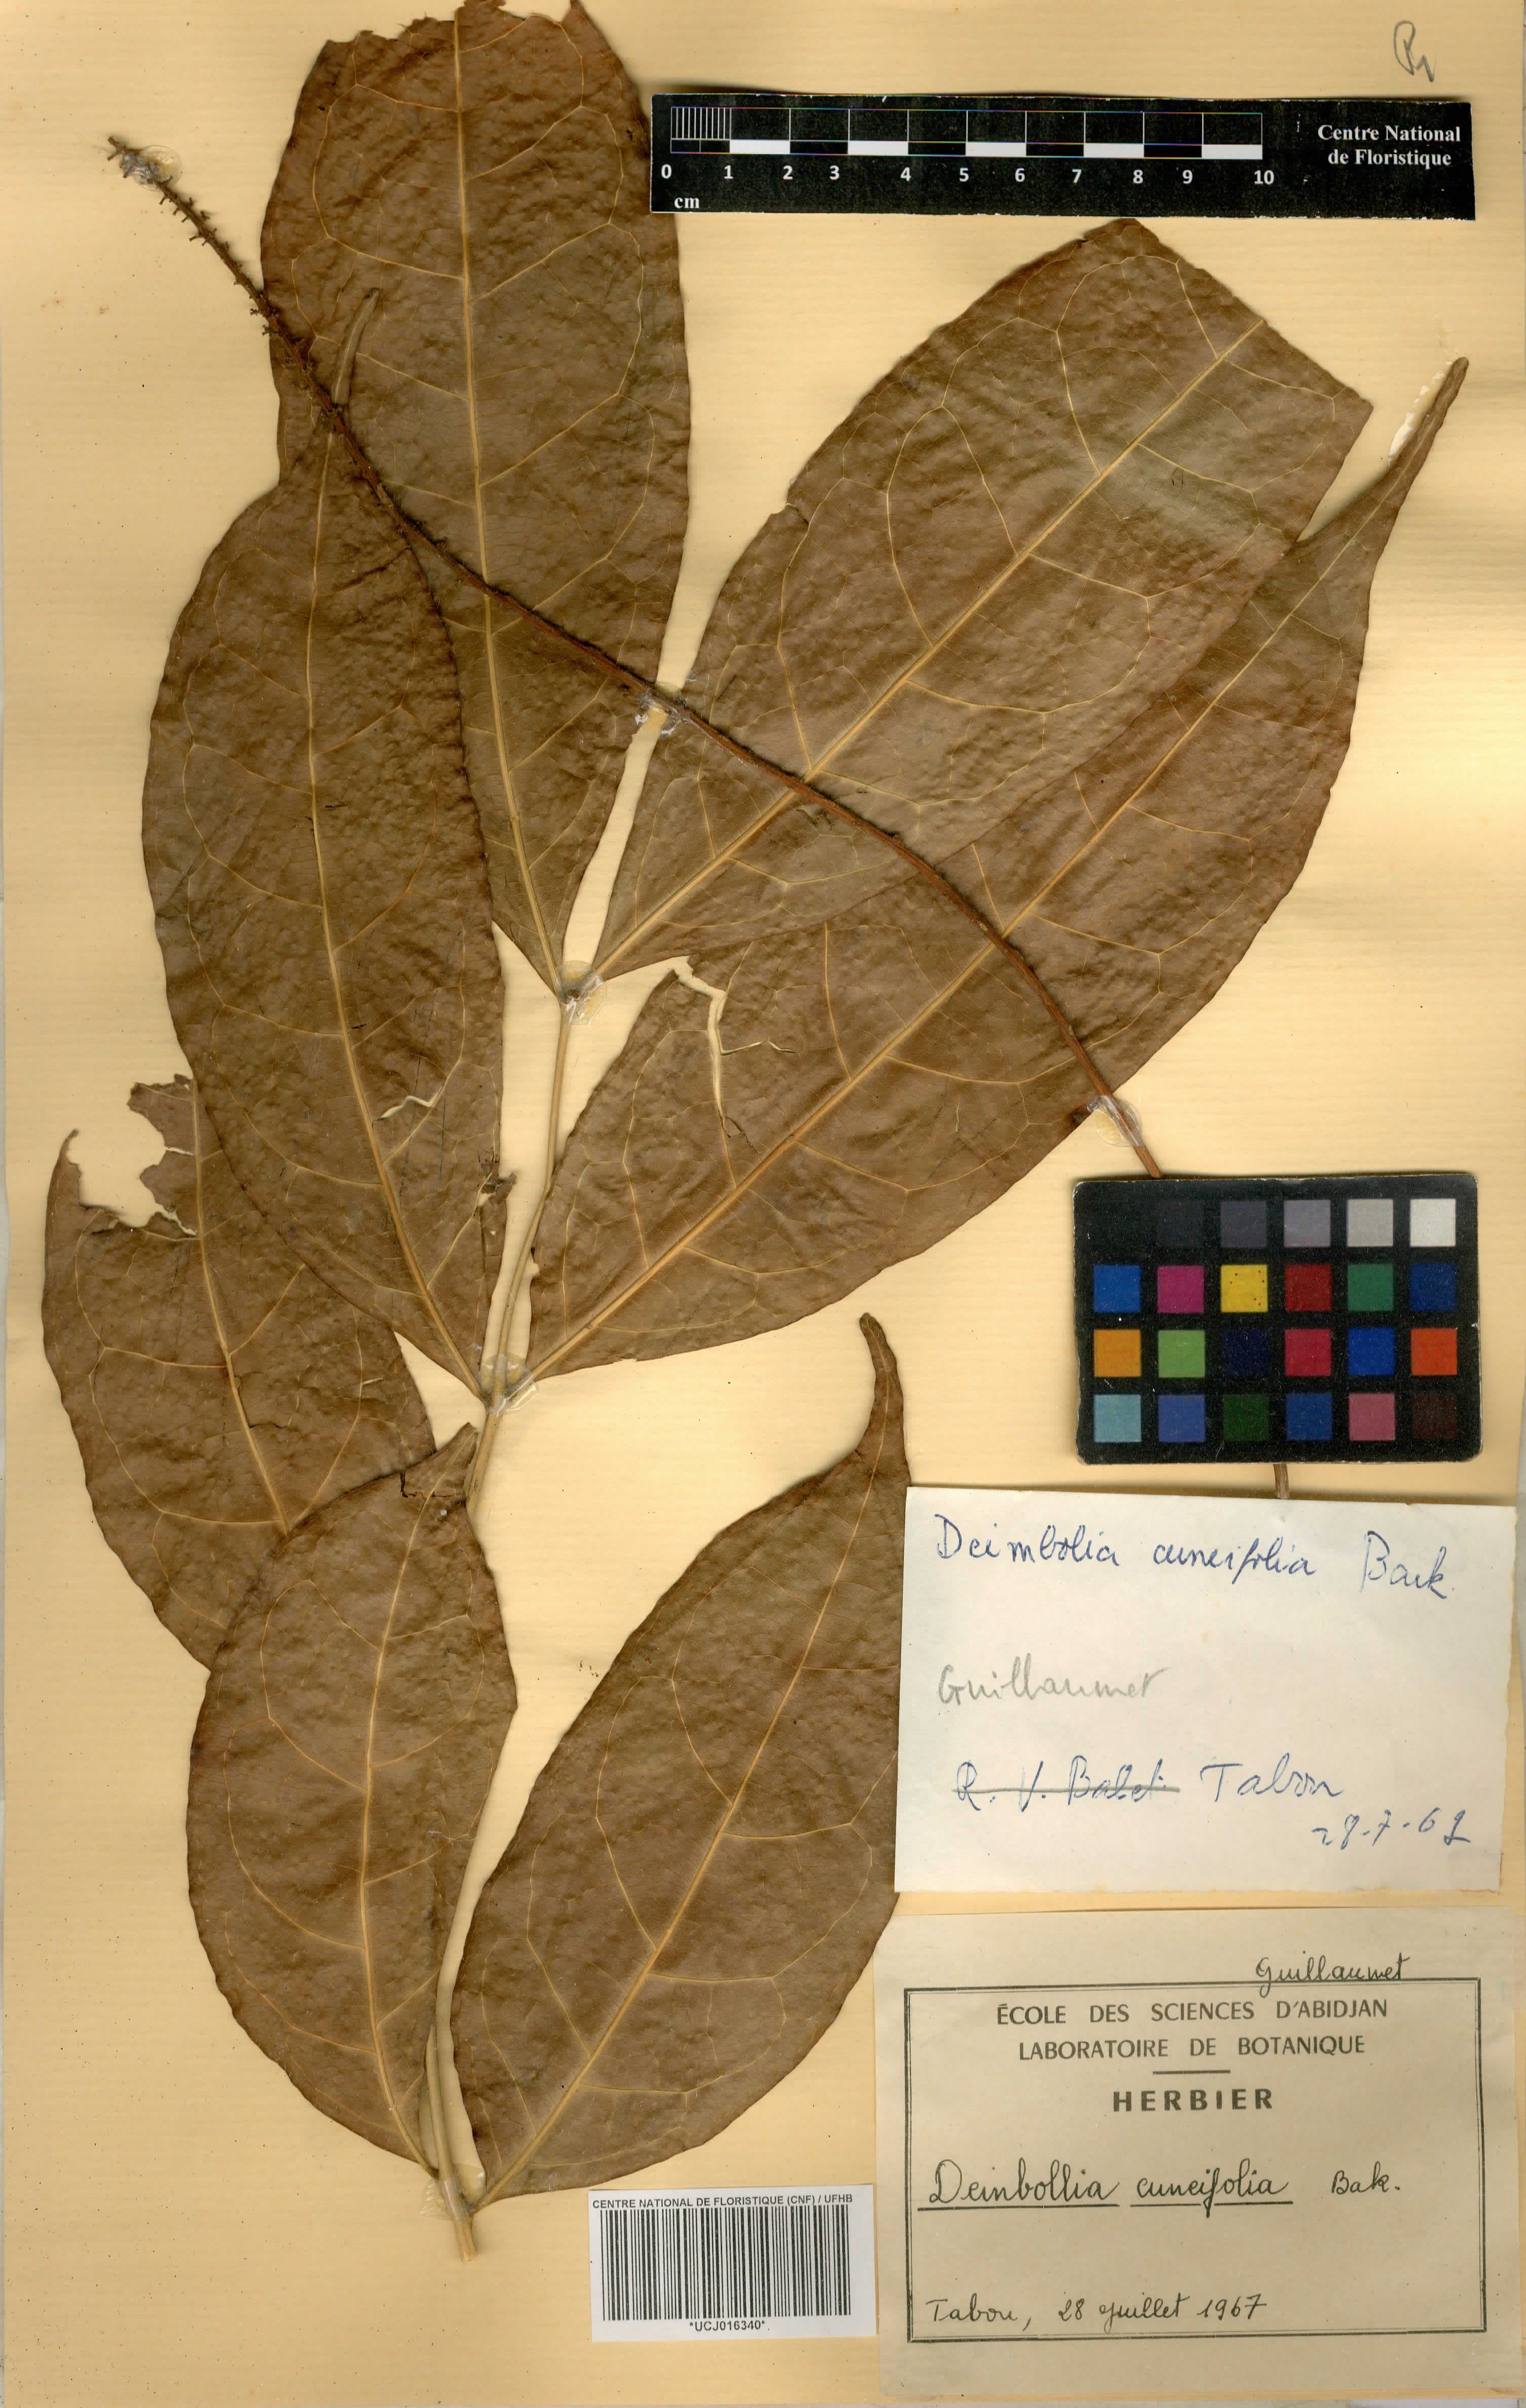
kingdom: Plantae
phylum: Tracheophyta
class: Magnoliopsida
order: Sapindales
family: Sapindaceae
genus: Deinbollia
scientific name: Deinbollia cuneifolia
